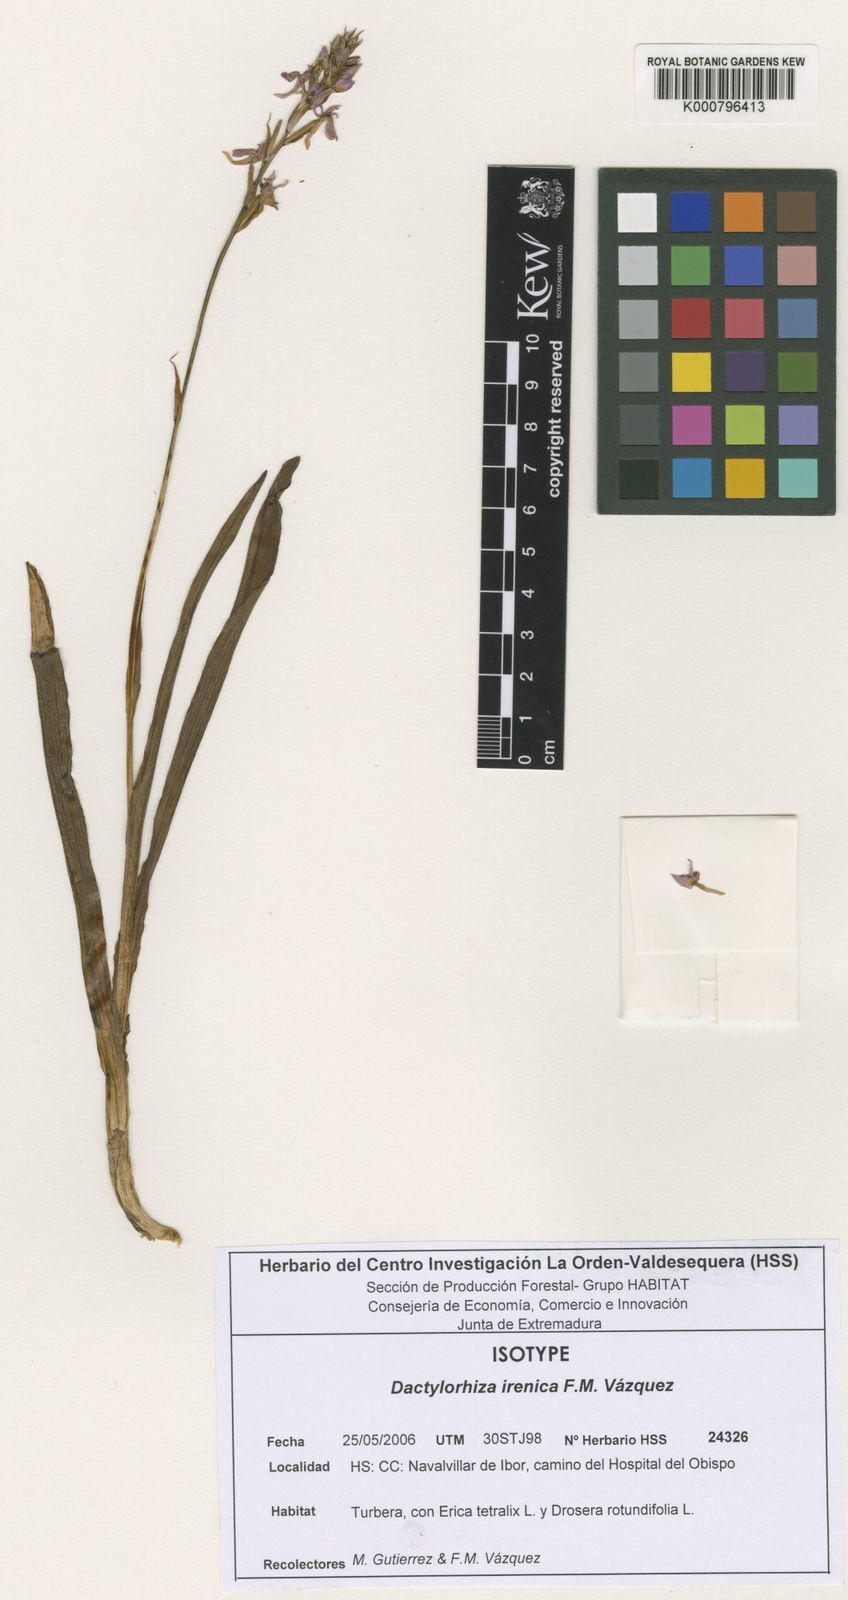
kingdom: Plantae
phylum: Tracheophyta
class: Liliopsida
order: Asparagales
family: Orchidaceae
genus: Dactylorhiza
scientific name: Dactylorhiza
